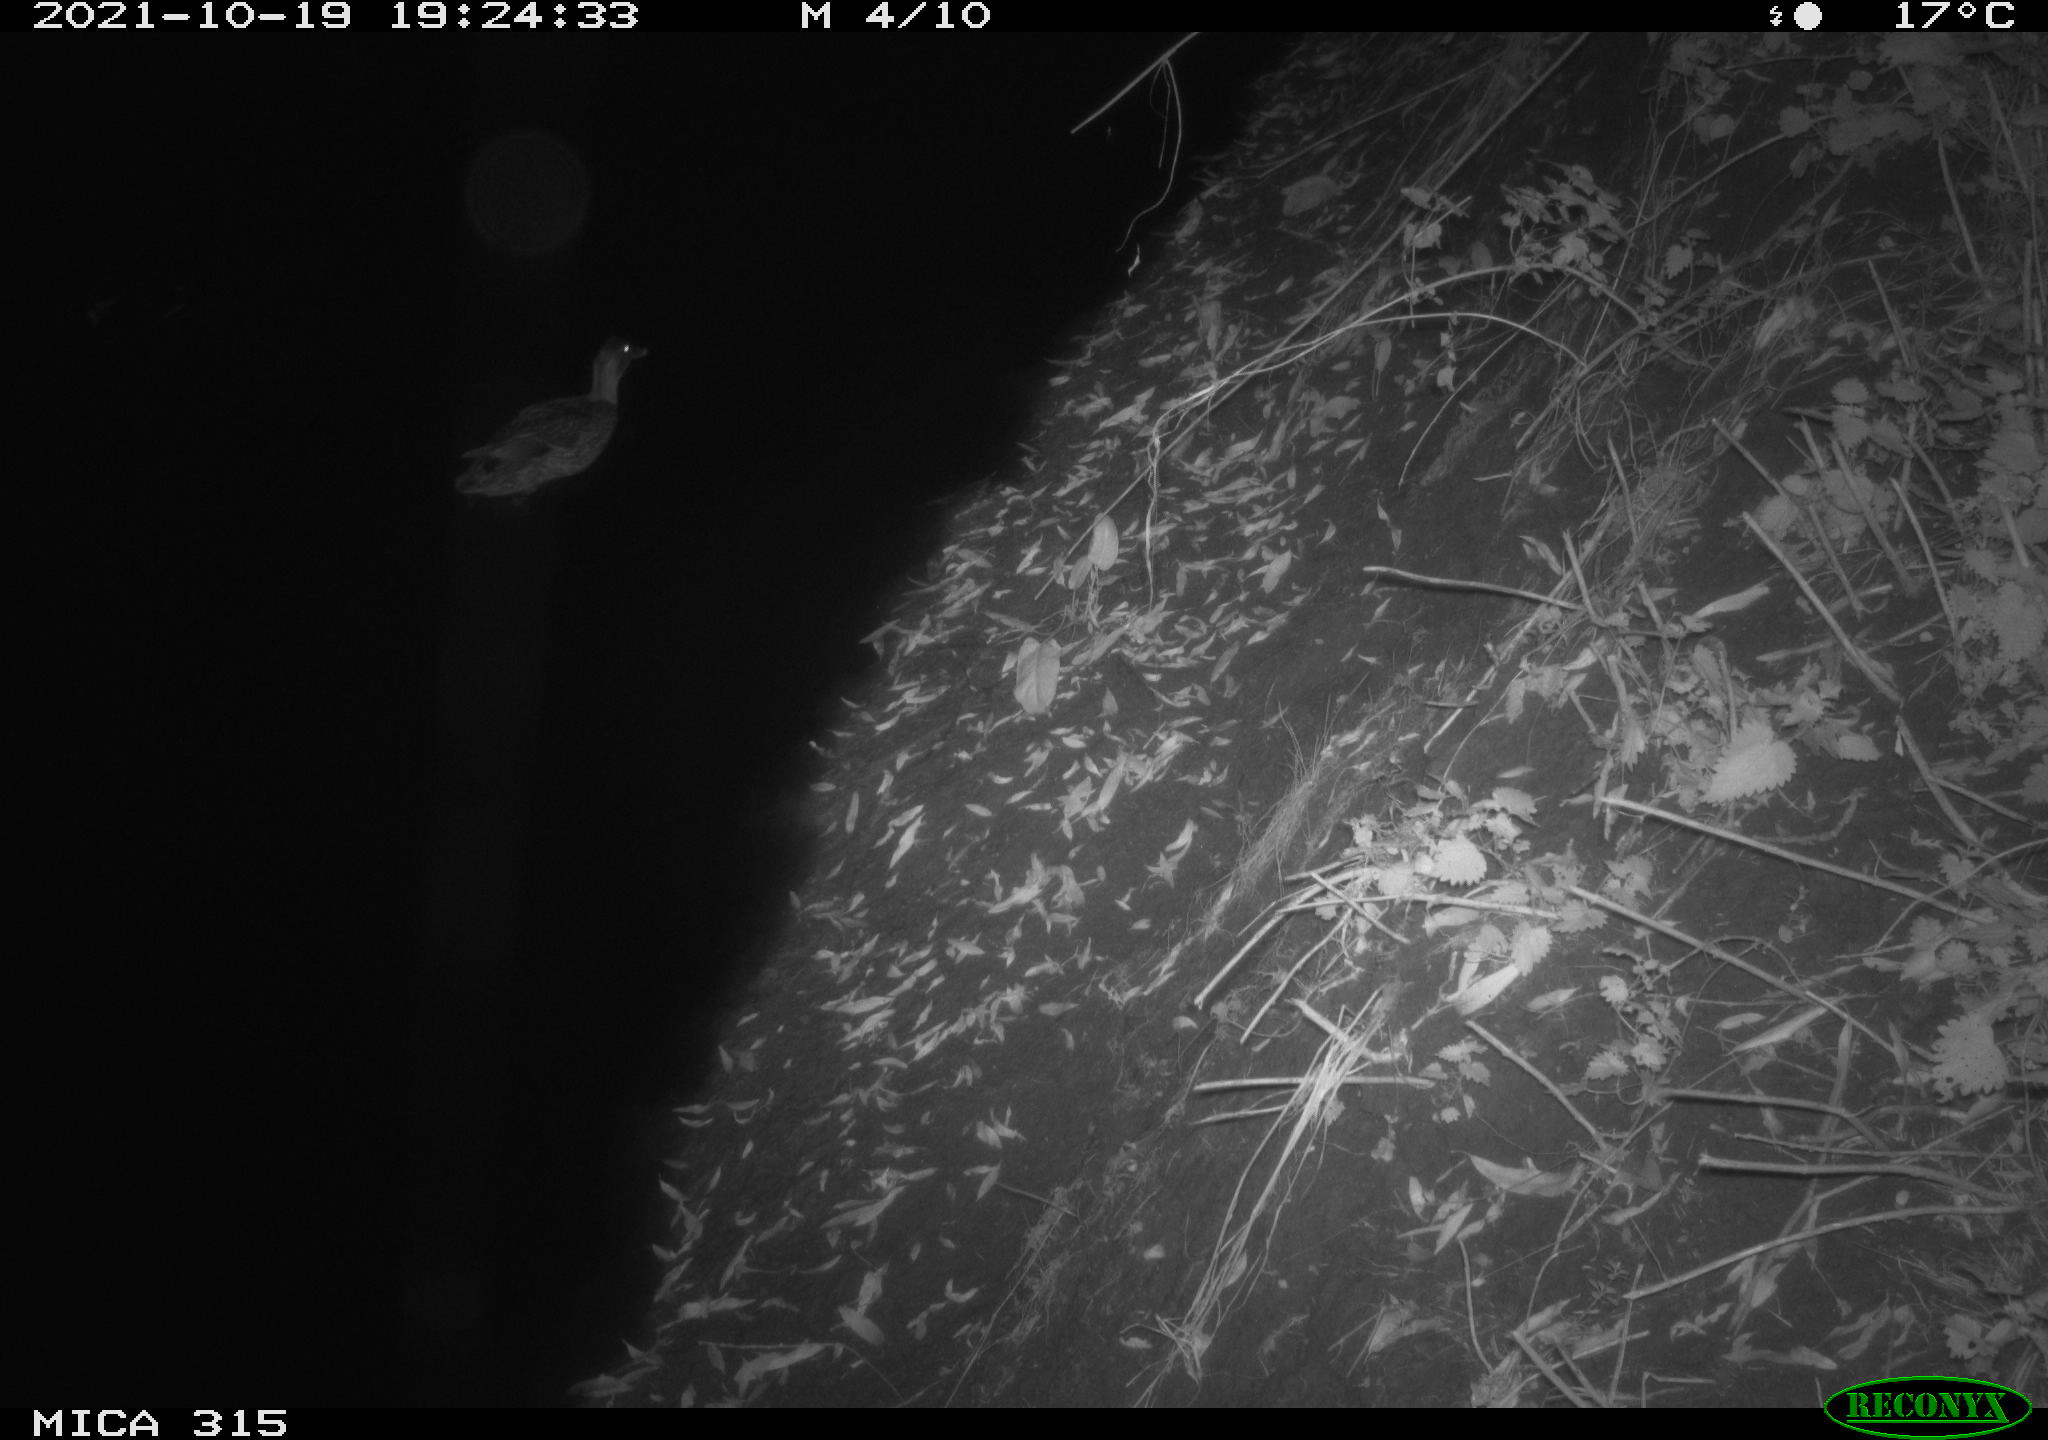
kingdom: Animalia
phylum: Chordata
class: Aves
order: Anseriformes
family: Anatidae
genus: Anas
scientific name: Anas platyrhynchos
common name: Mallard
